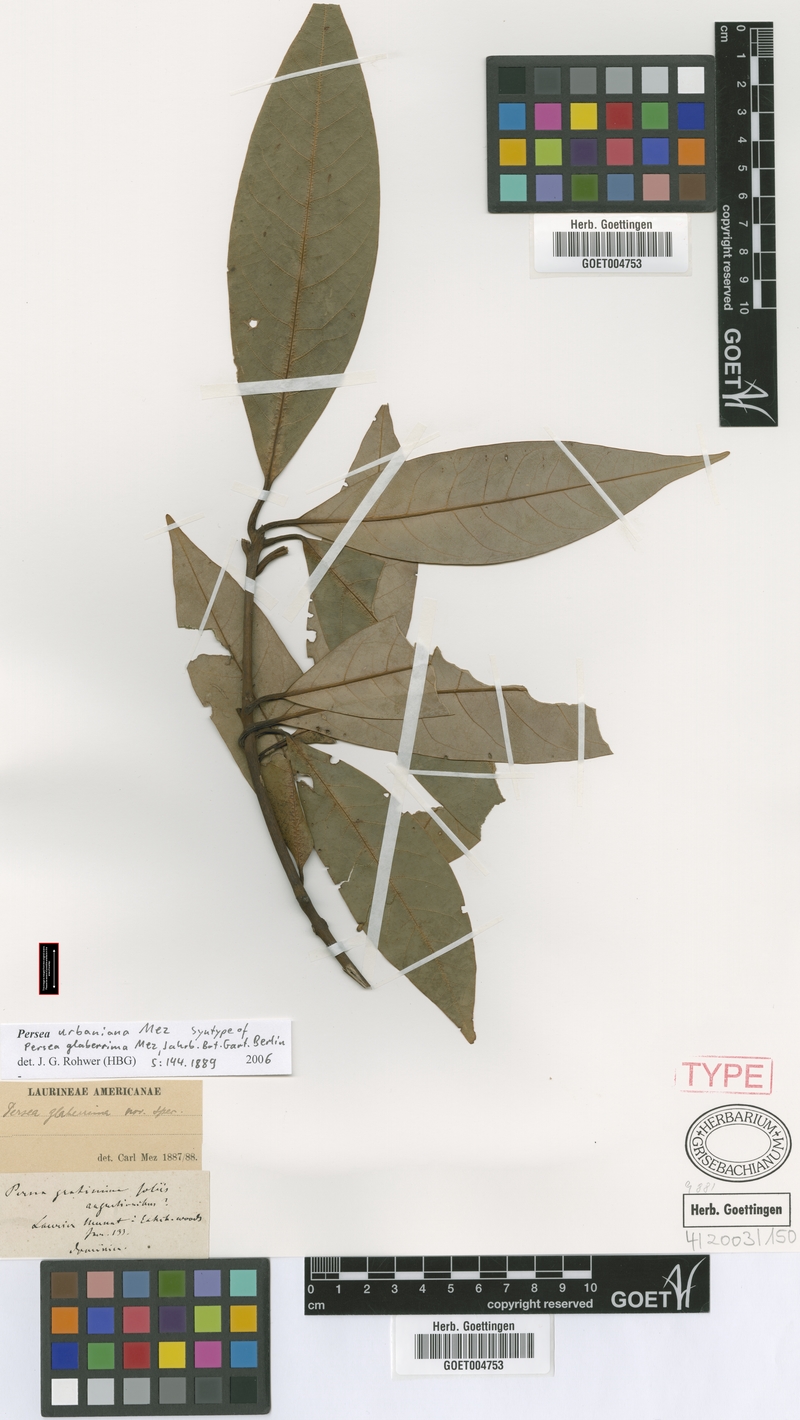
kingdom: Plantae
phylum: Tracheophyta
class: Magnoliopsida
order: Laurales
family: Lauraceae
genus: Persea
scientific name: Persea urbaniana
